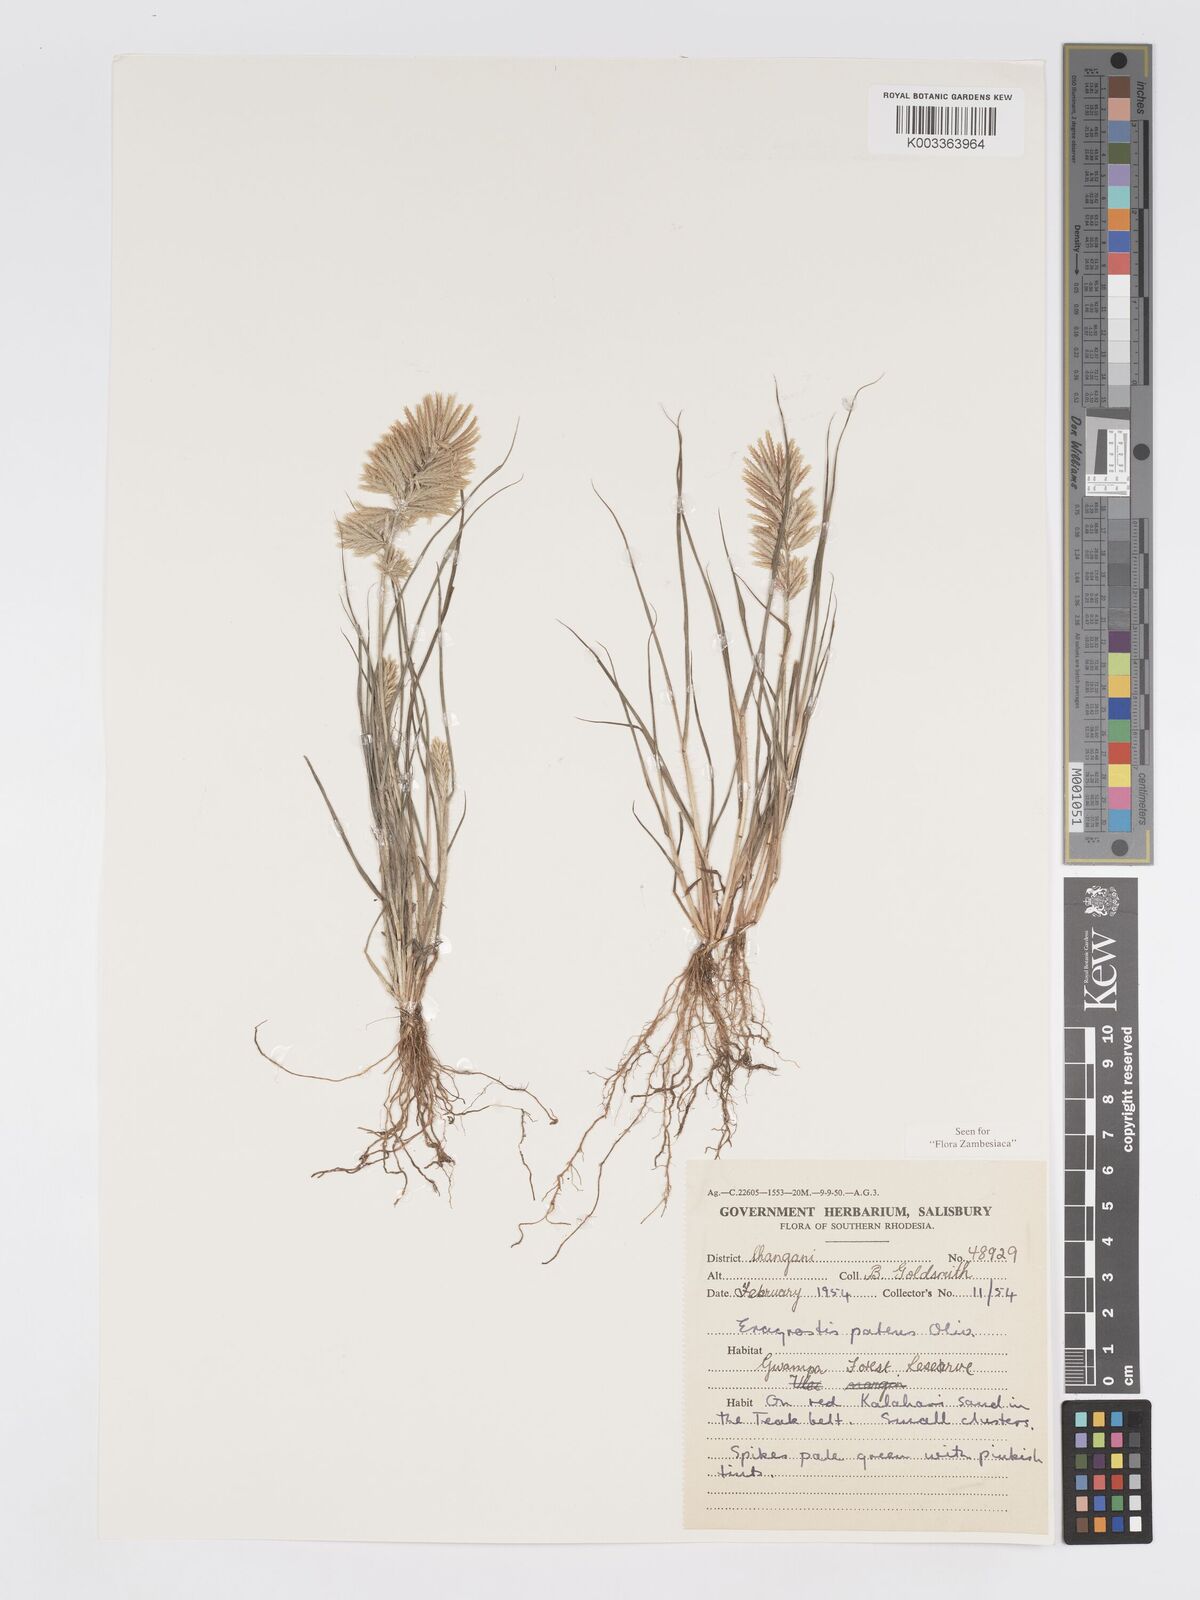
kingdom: Plantae
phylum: Tracheophyta
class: Liliopsida
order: Poales
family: Poaceae
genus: Eragrostis
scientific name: Eragrostis patens
